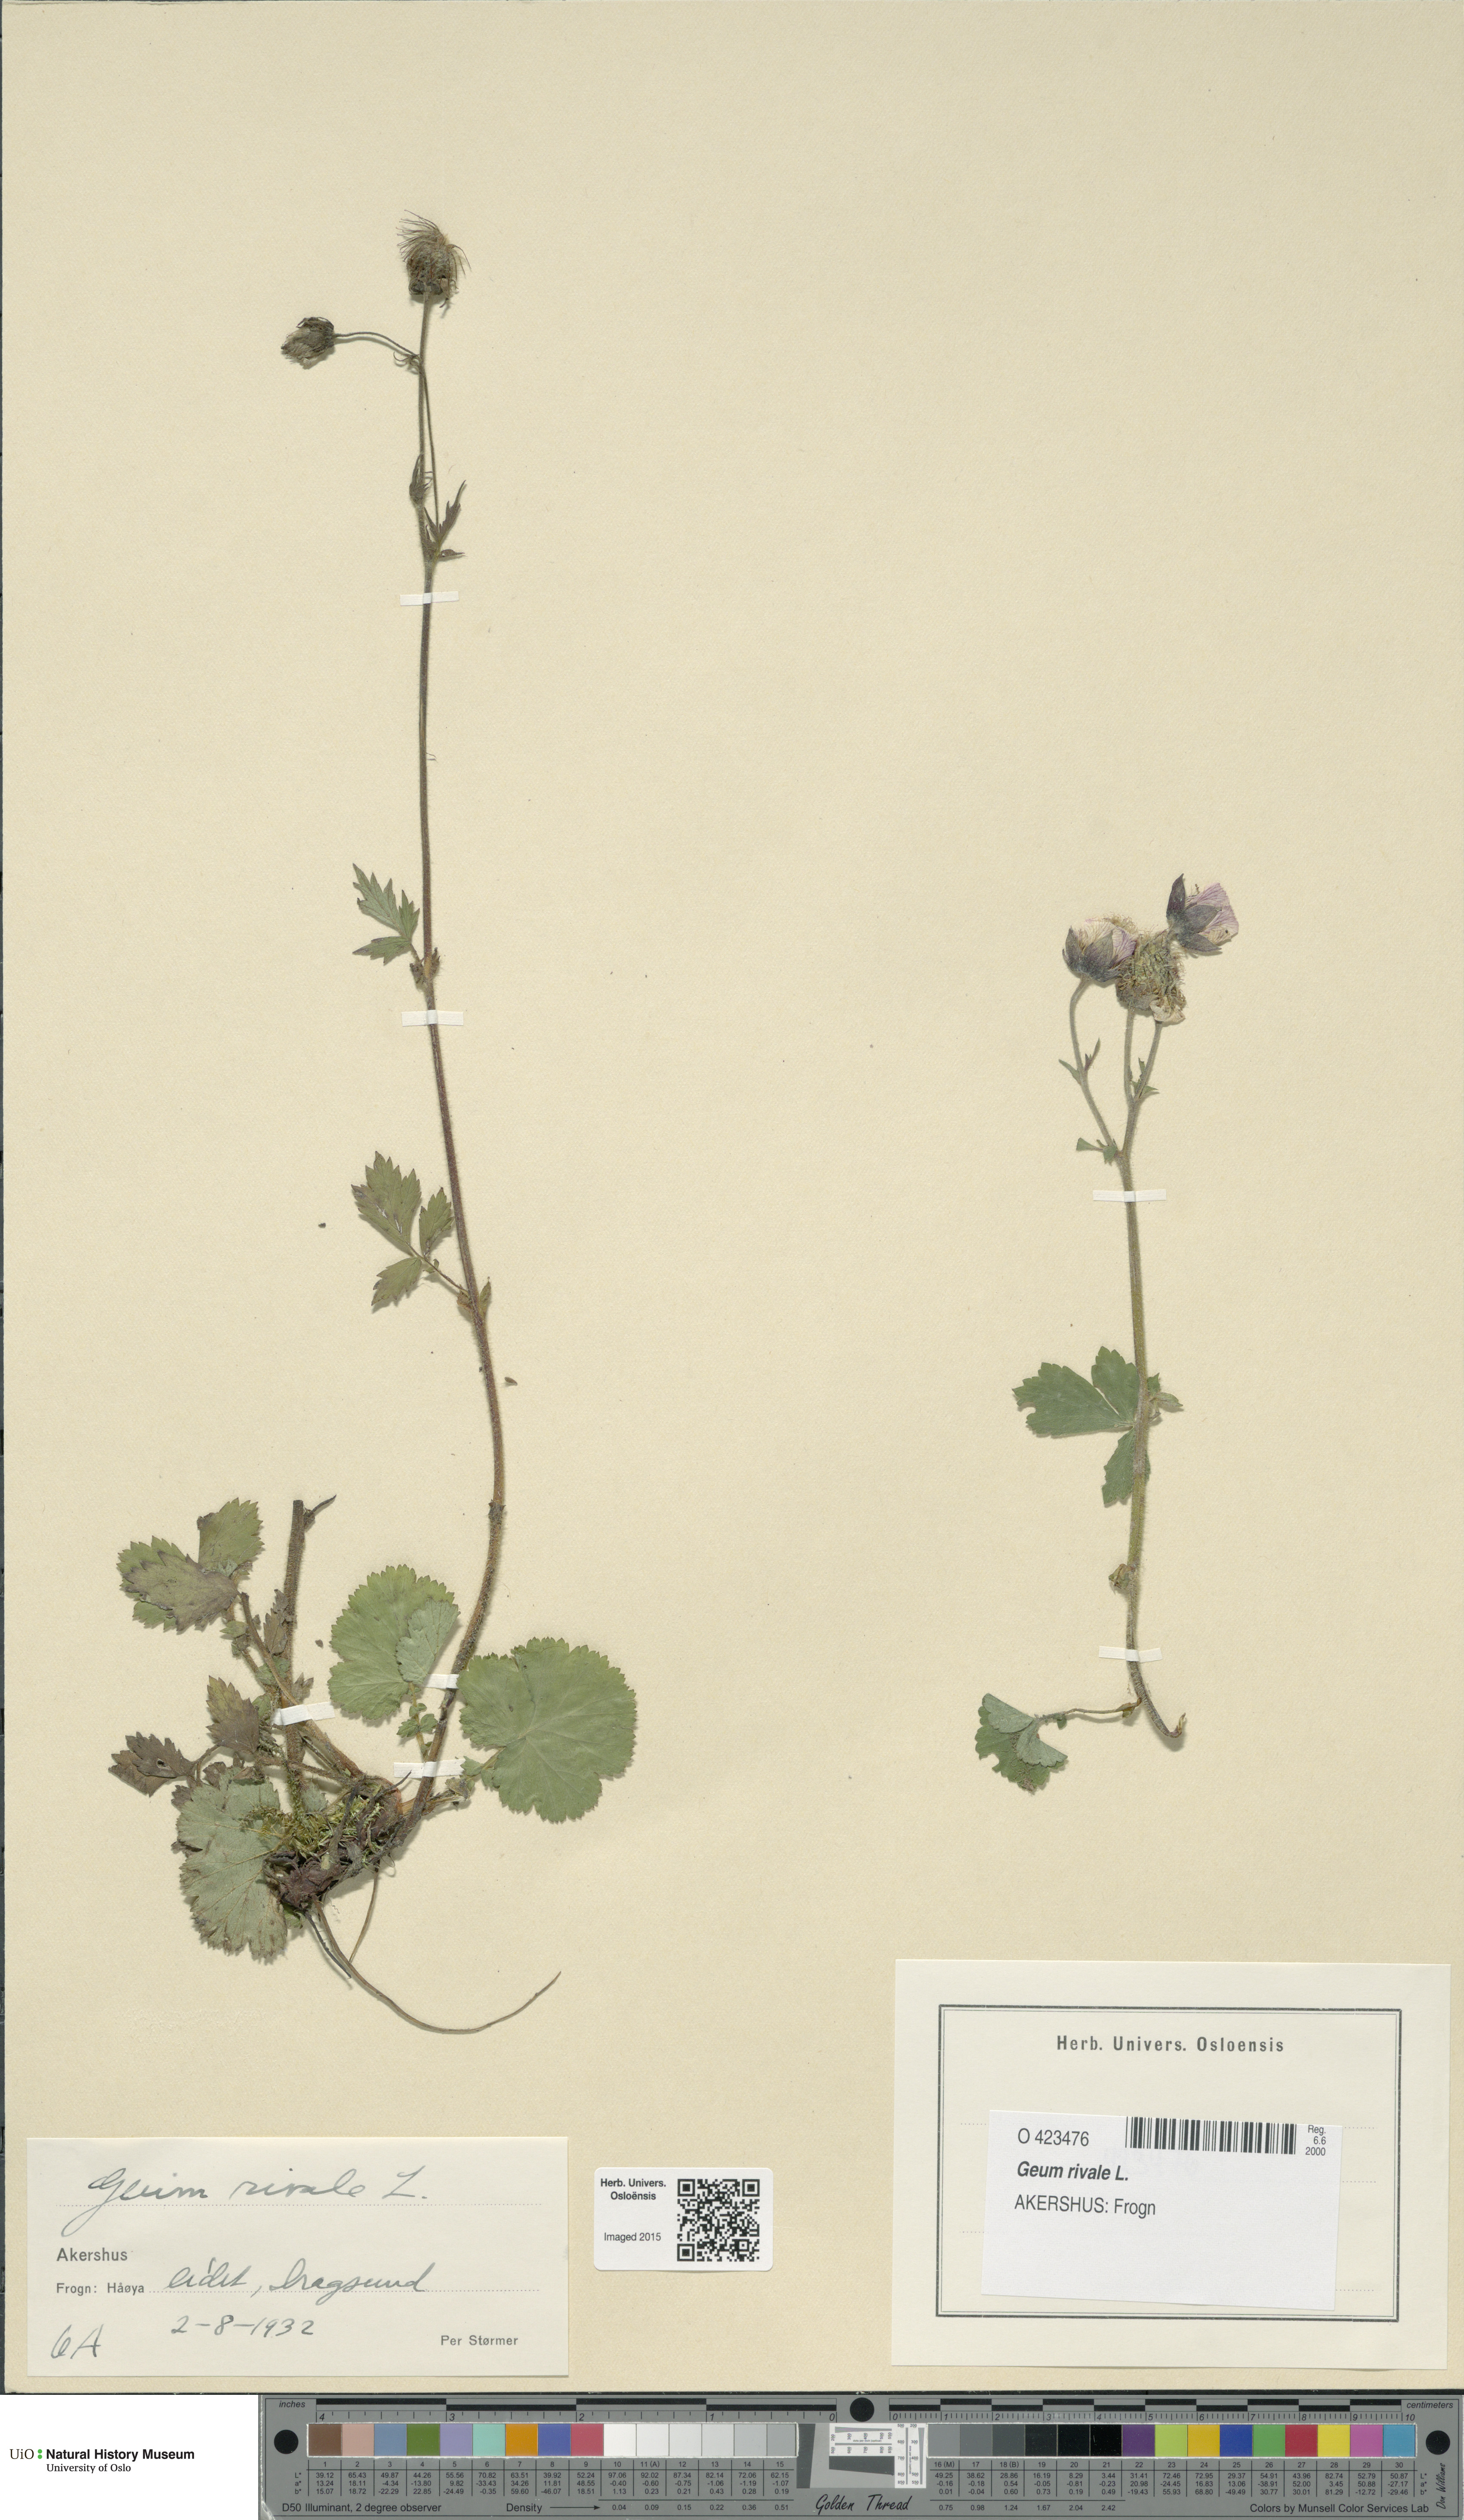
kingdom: Plantae
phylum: Tracheophyta
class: Magnoliopsida
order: Rosales
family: Rosaceae
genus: Geum
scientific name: Geum rivale
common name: Water avens
